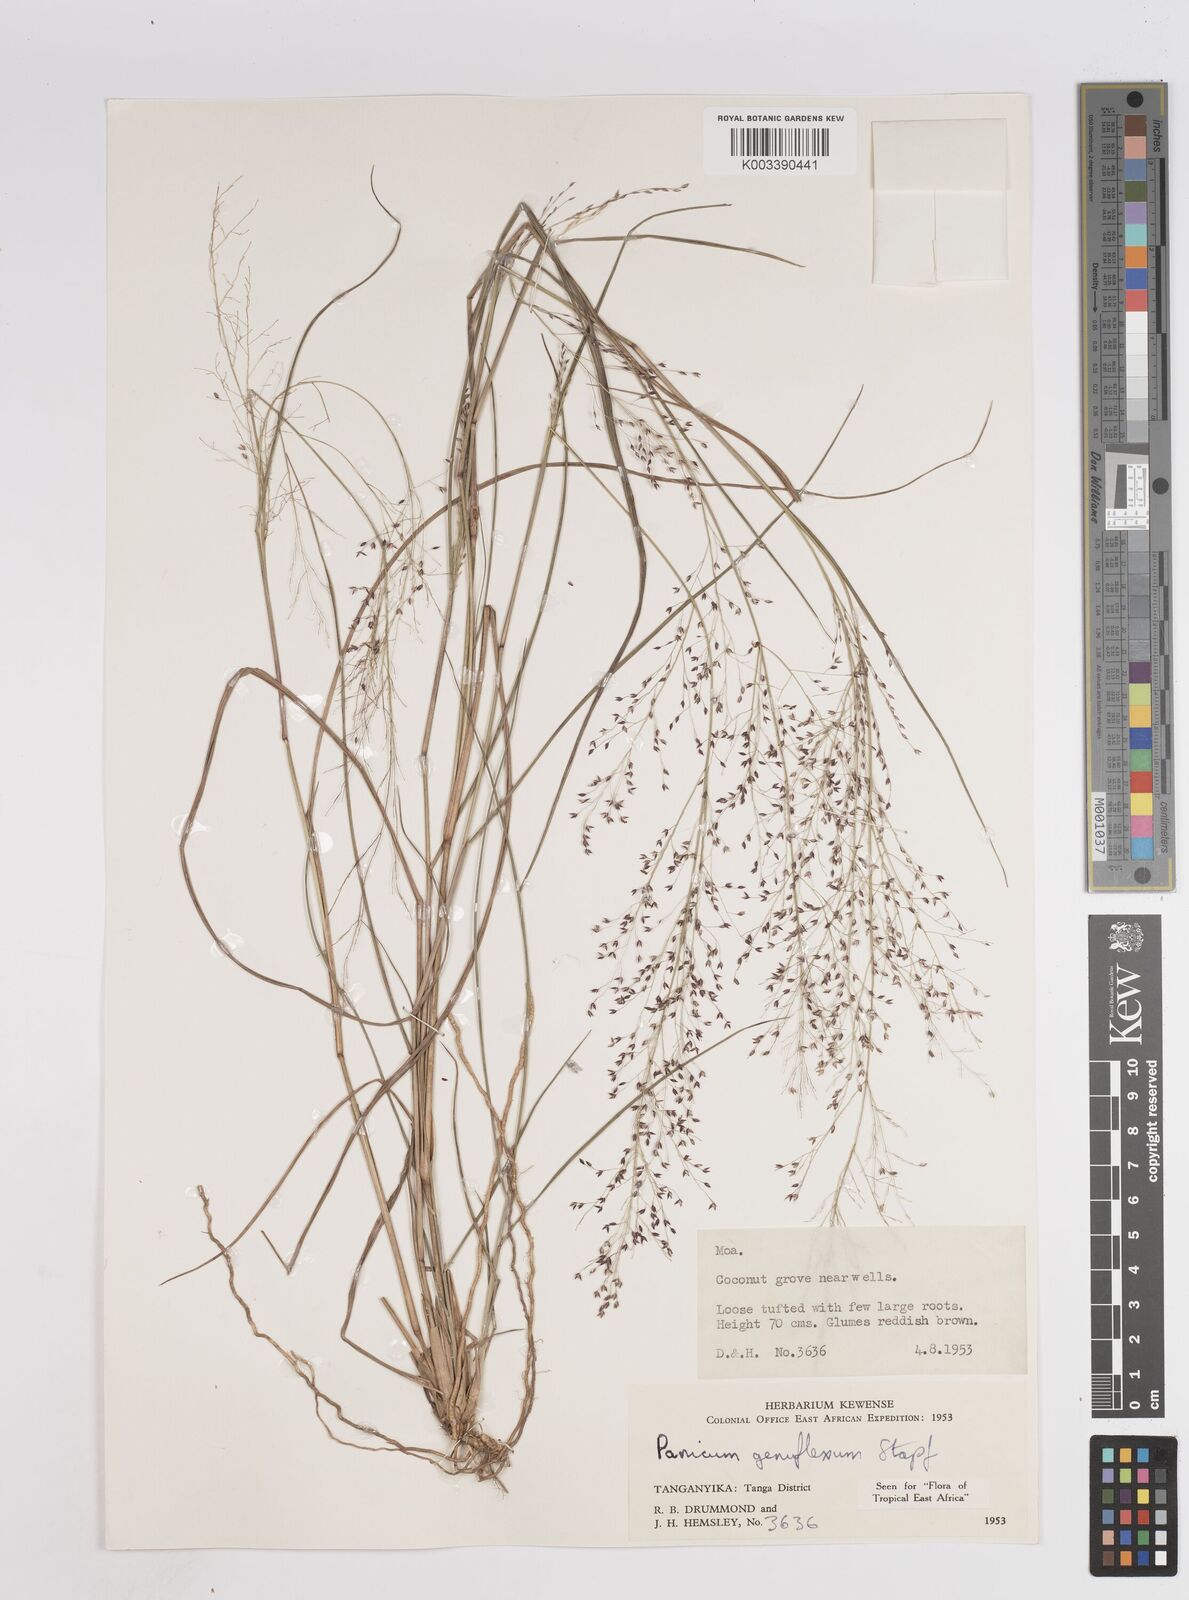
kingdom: Plantae
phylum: Tracheophyta
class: Liliopsida
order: Poales
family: Poaceae
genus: Panicum
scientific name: Panicum genuflexum
